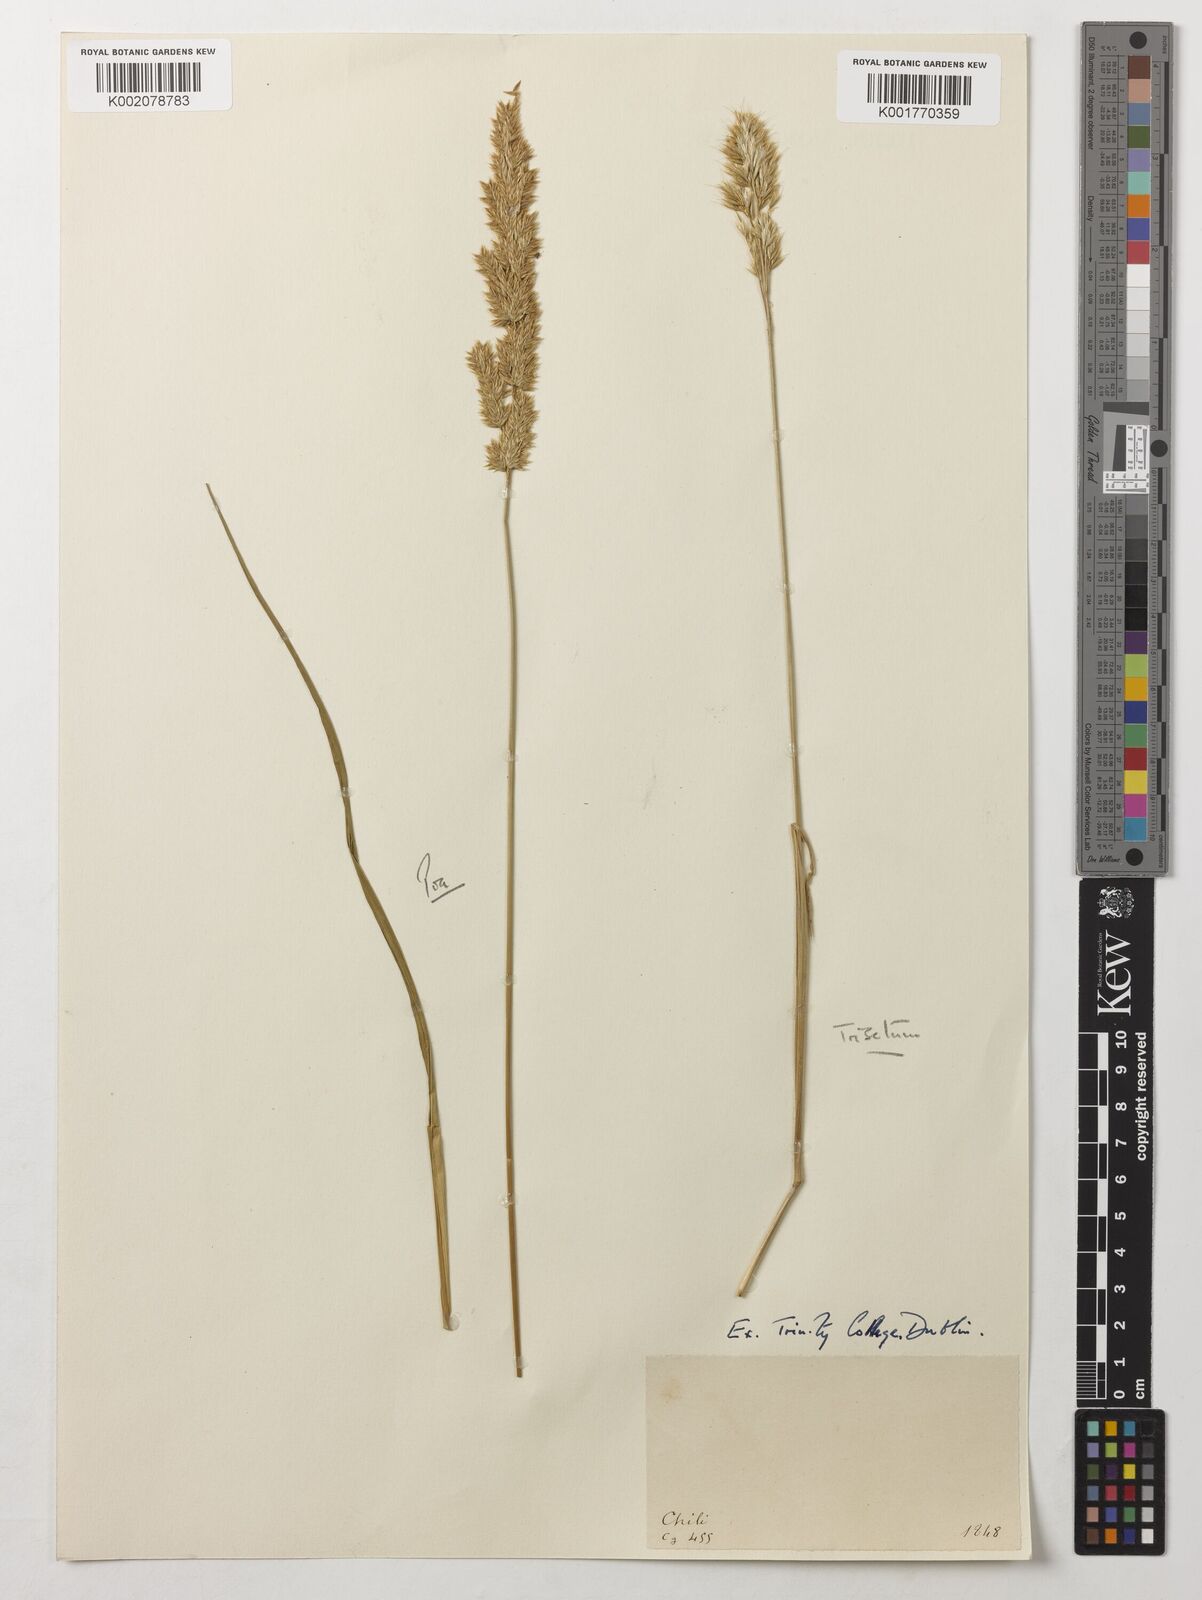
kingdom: Plantae
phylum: Tracheophyta
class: Liliopsida
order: Poales
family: Poaceae
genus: Trisetum
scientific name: Trisetum
